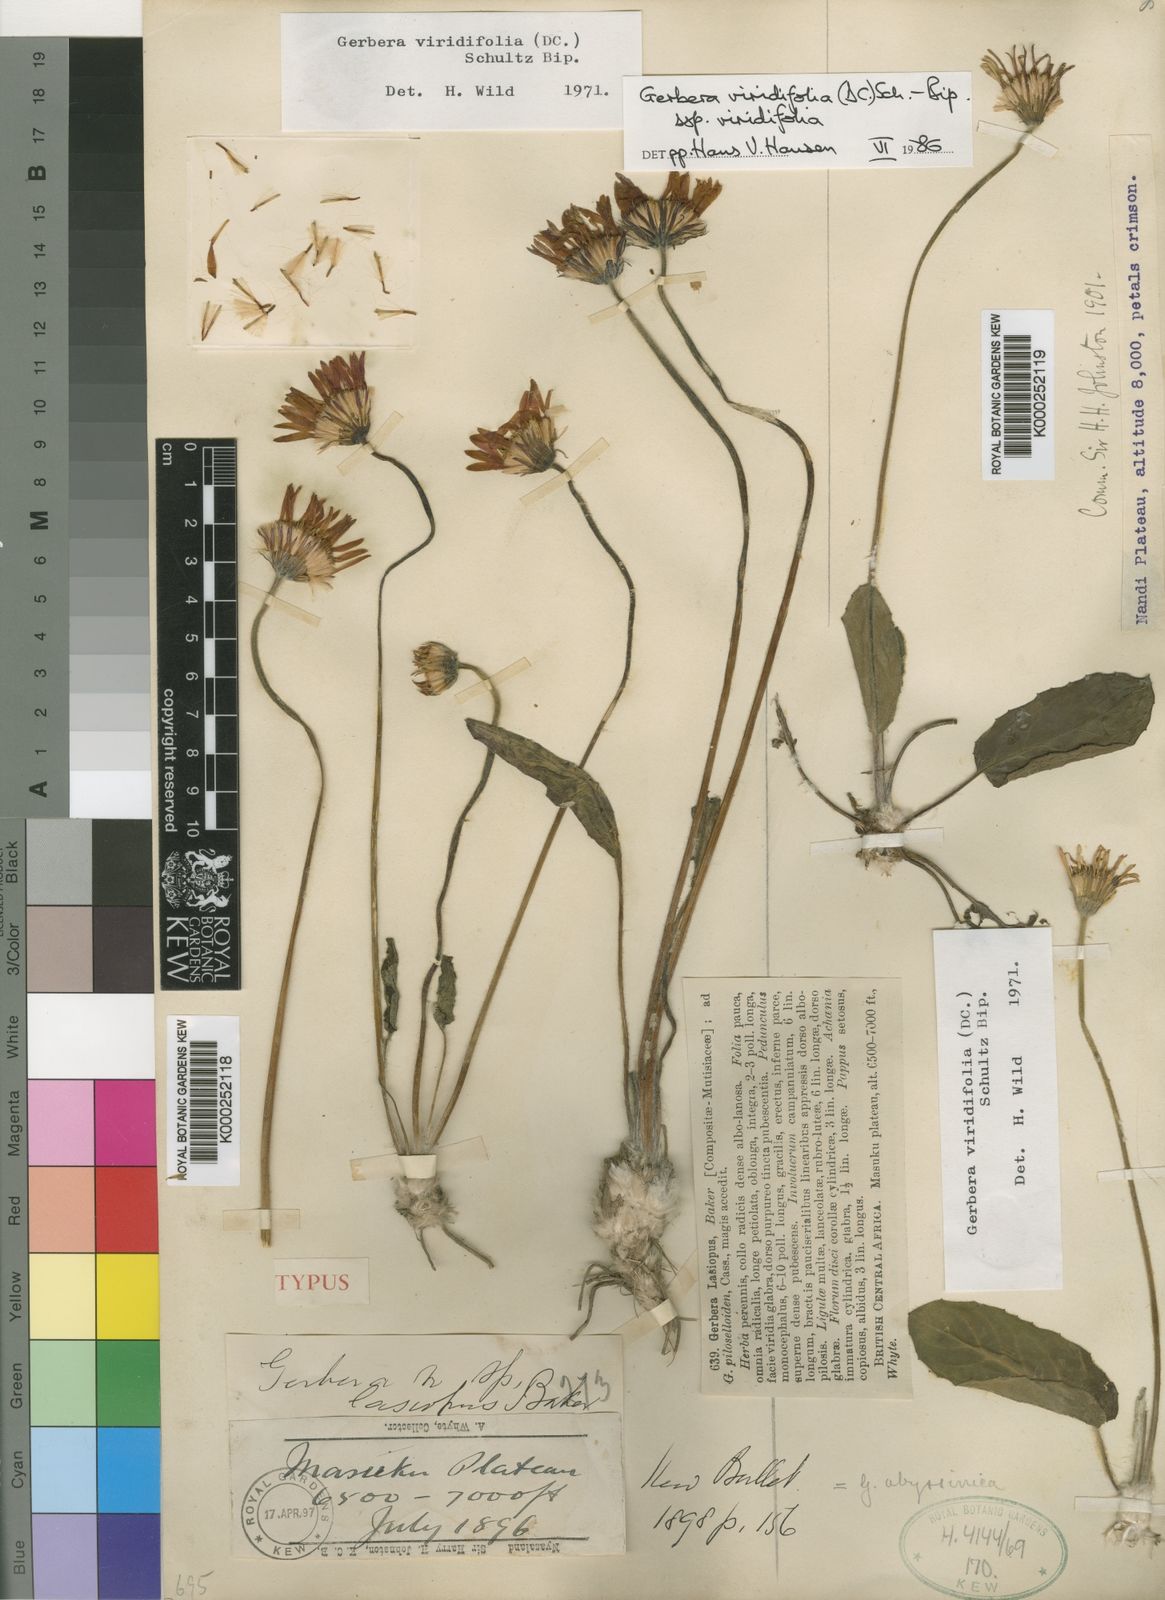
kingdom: Plantae
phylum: Tracheophyta
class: Magnoliopsida
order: Asterales
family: Asteraceae
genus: Gerbera
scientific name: Gerbera viridifolia
